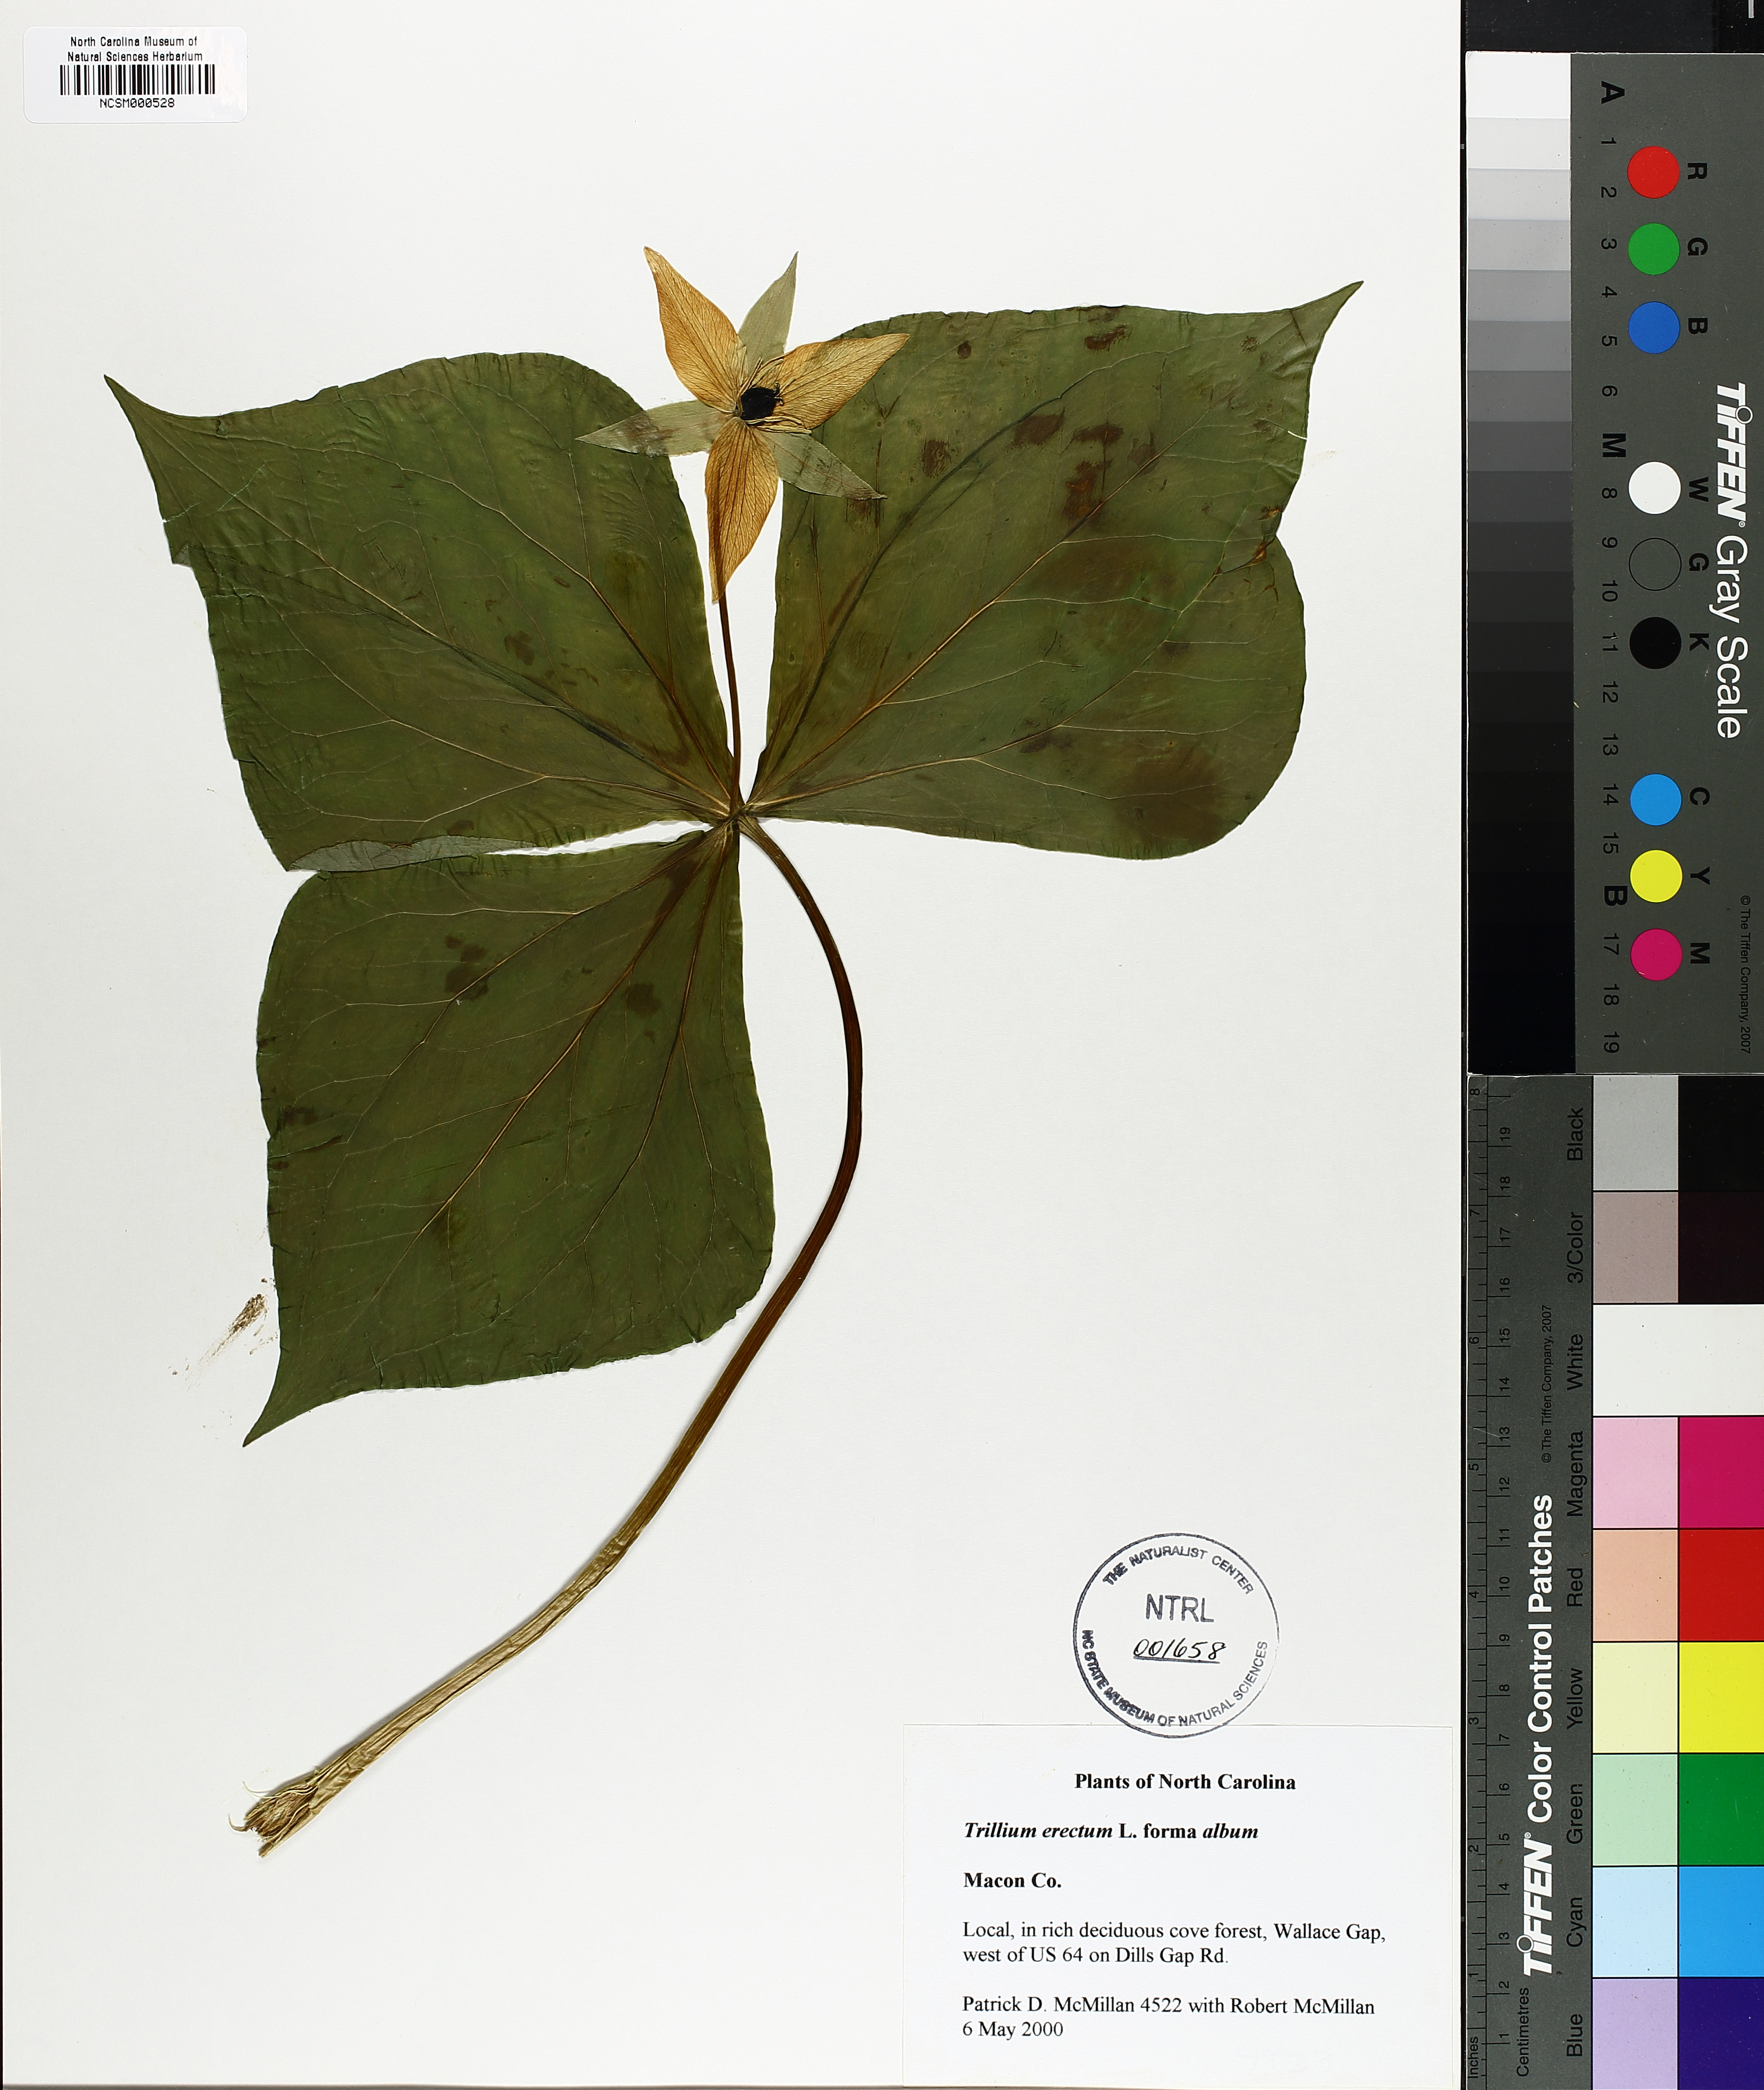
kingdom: Plantae
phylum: Tracheophyta
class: Liliopsida
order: Liliales
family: Melanthiaceae
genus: Trillium
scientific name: Trillium erectum
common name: Purple trillium
